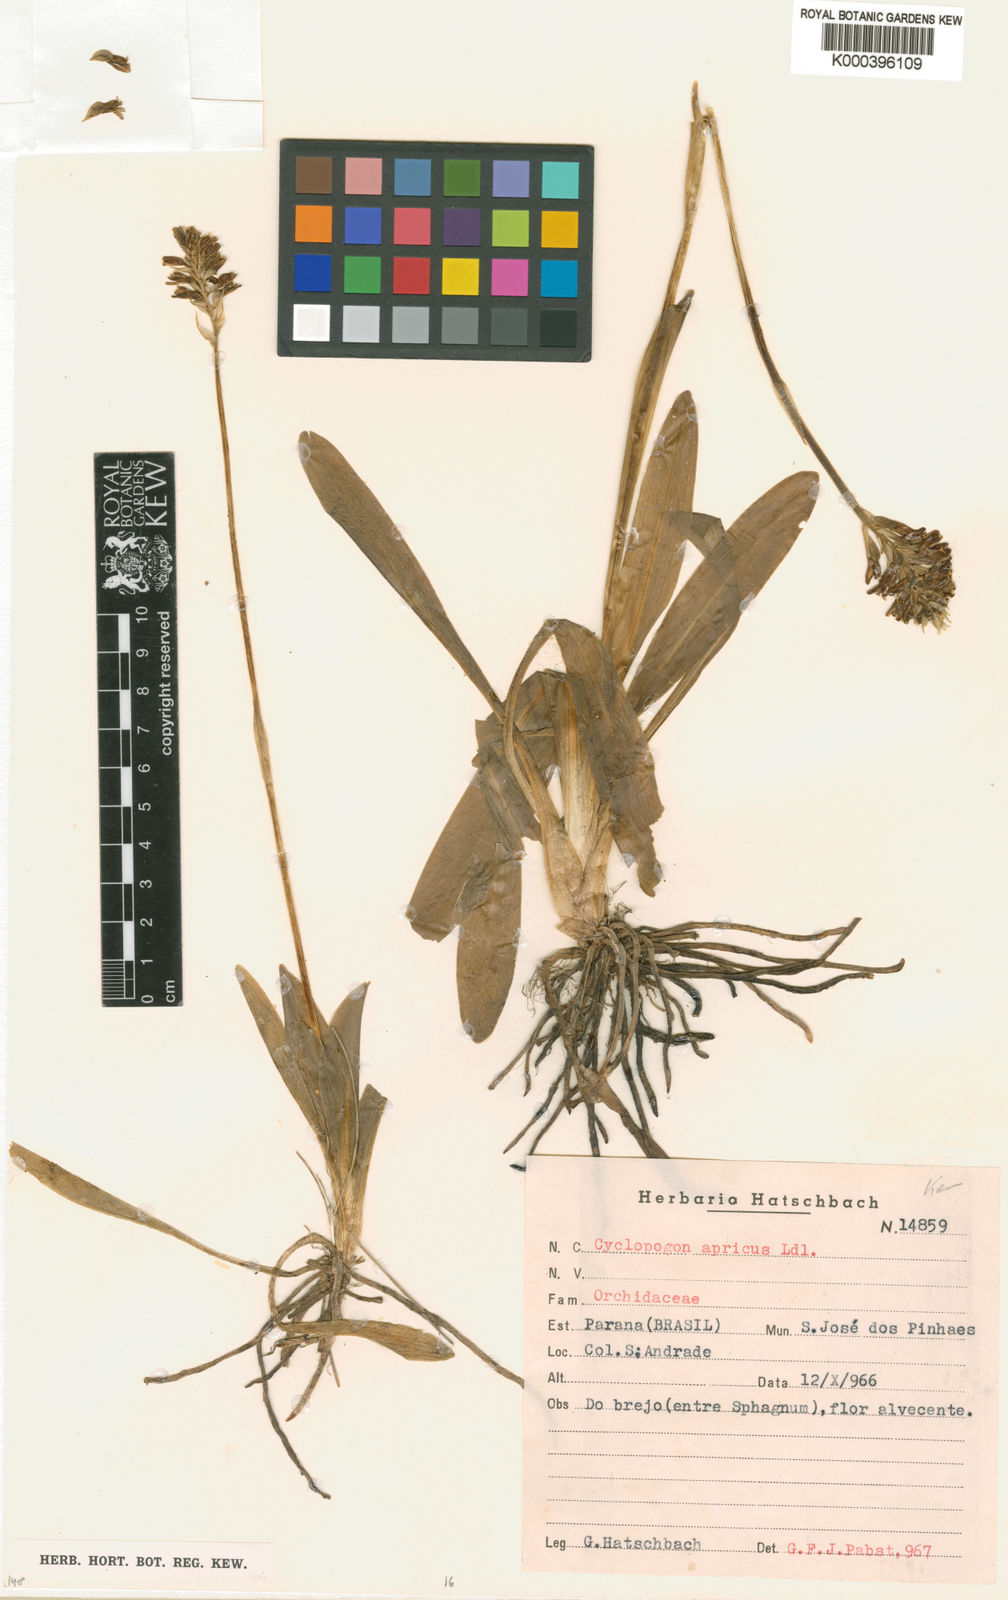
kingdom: Plantae
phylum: Tracheophyta
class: Liliopsida
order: Asparagales
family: Orchidaceae
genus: Cyclopogon
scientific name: Cyclopogon apricus
